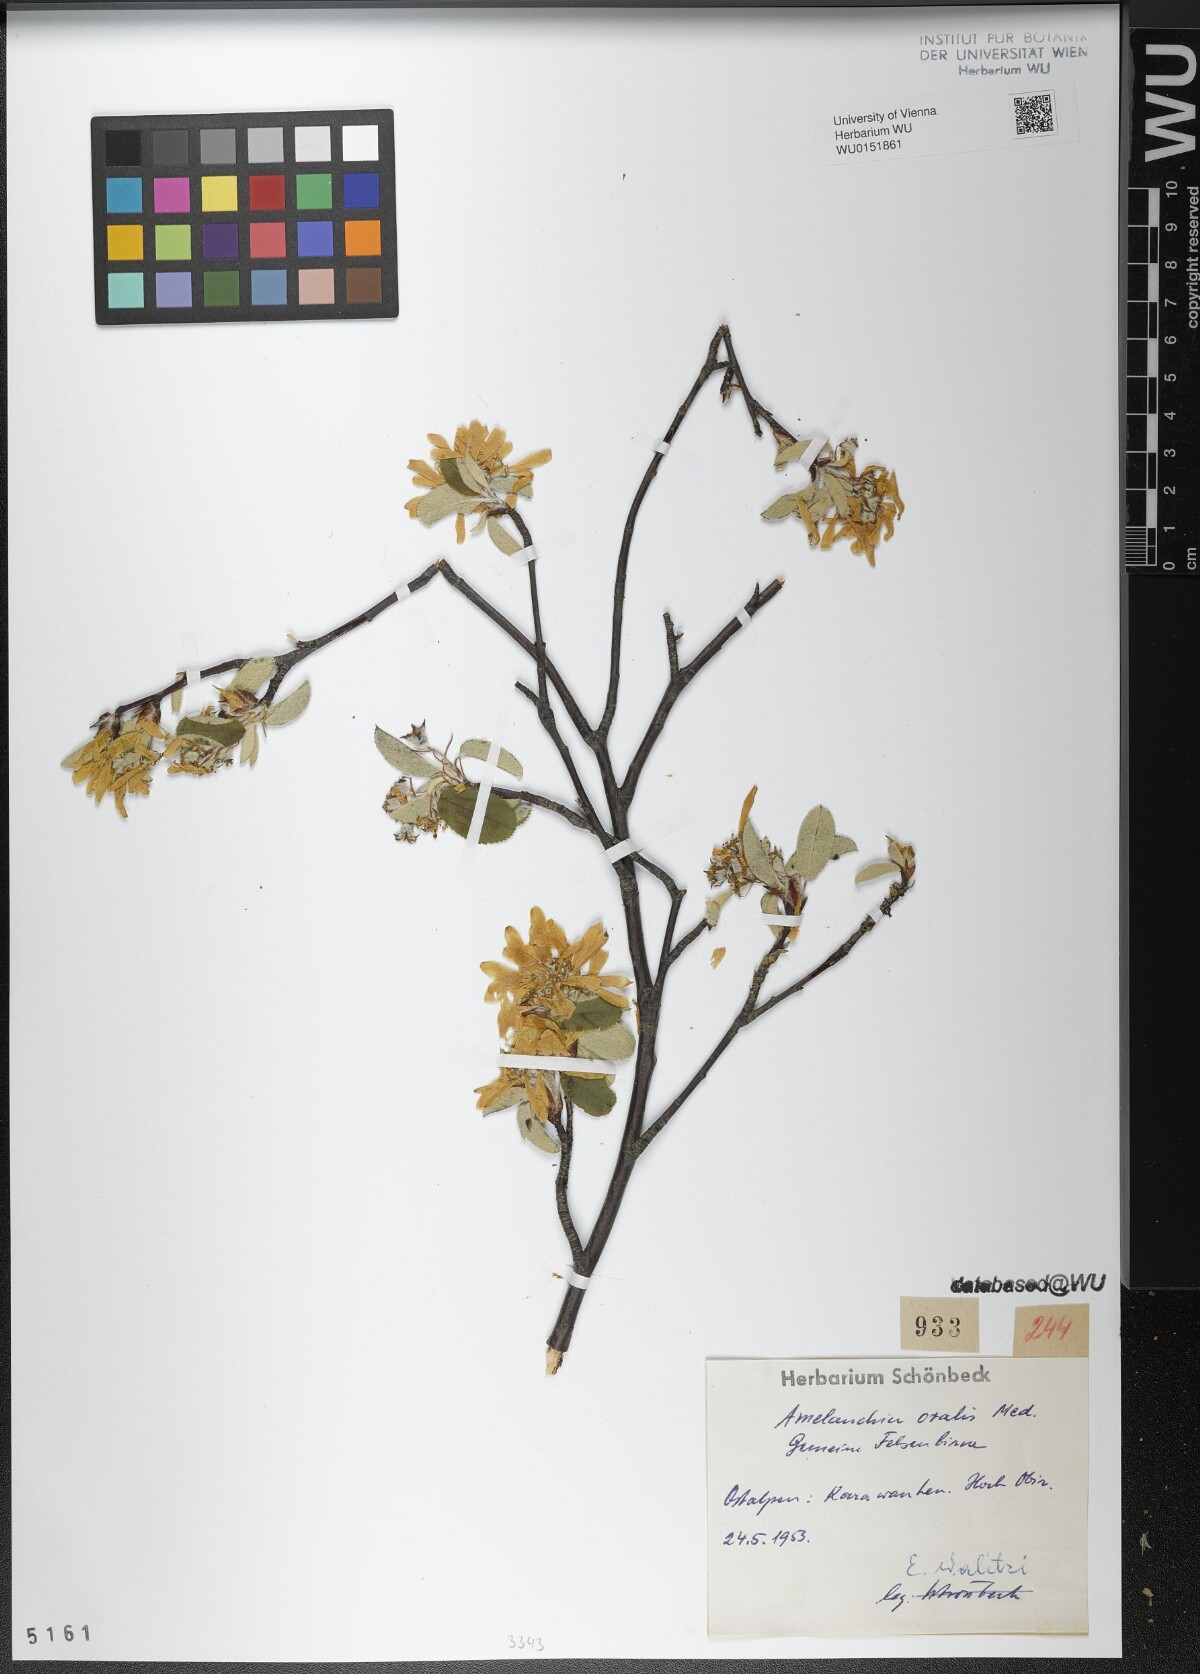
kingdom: Plantae
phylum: Tracheophyta
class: Magnoliopsida
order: Rosales
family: Rosaceae
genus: Amelanchier
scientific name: Amelanchier ovalis
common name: Serviceberry
